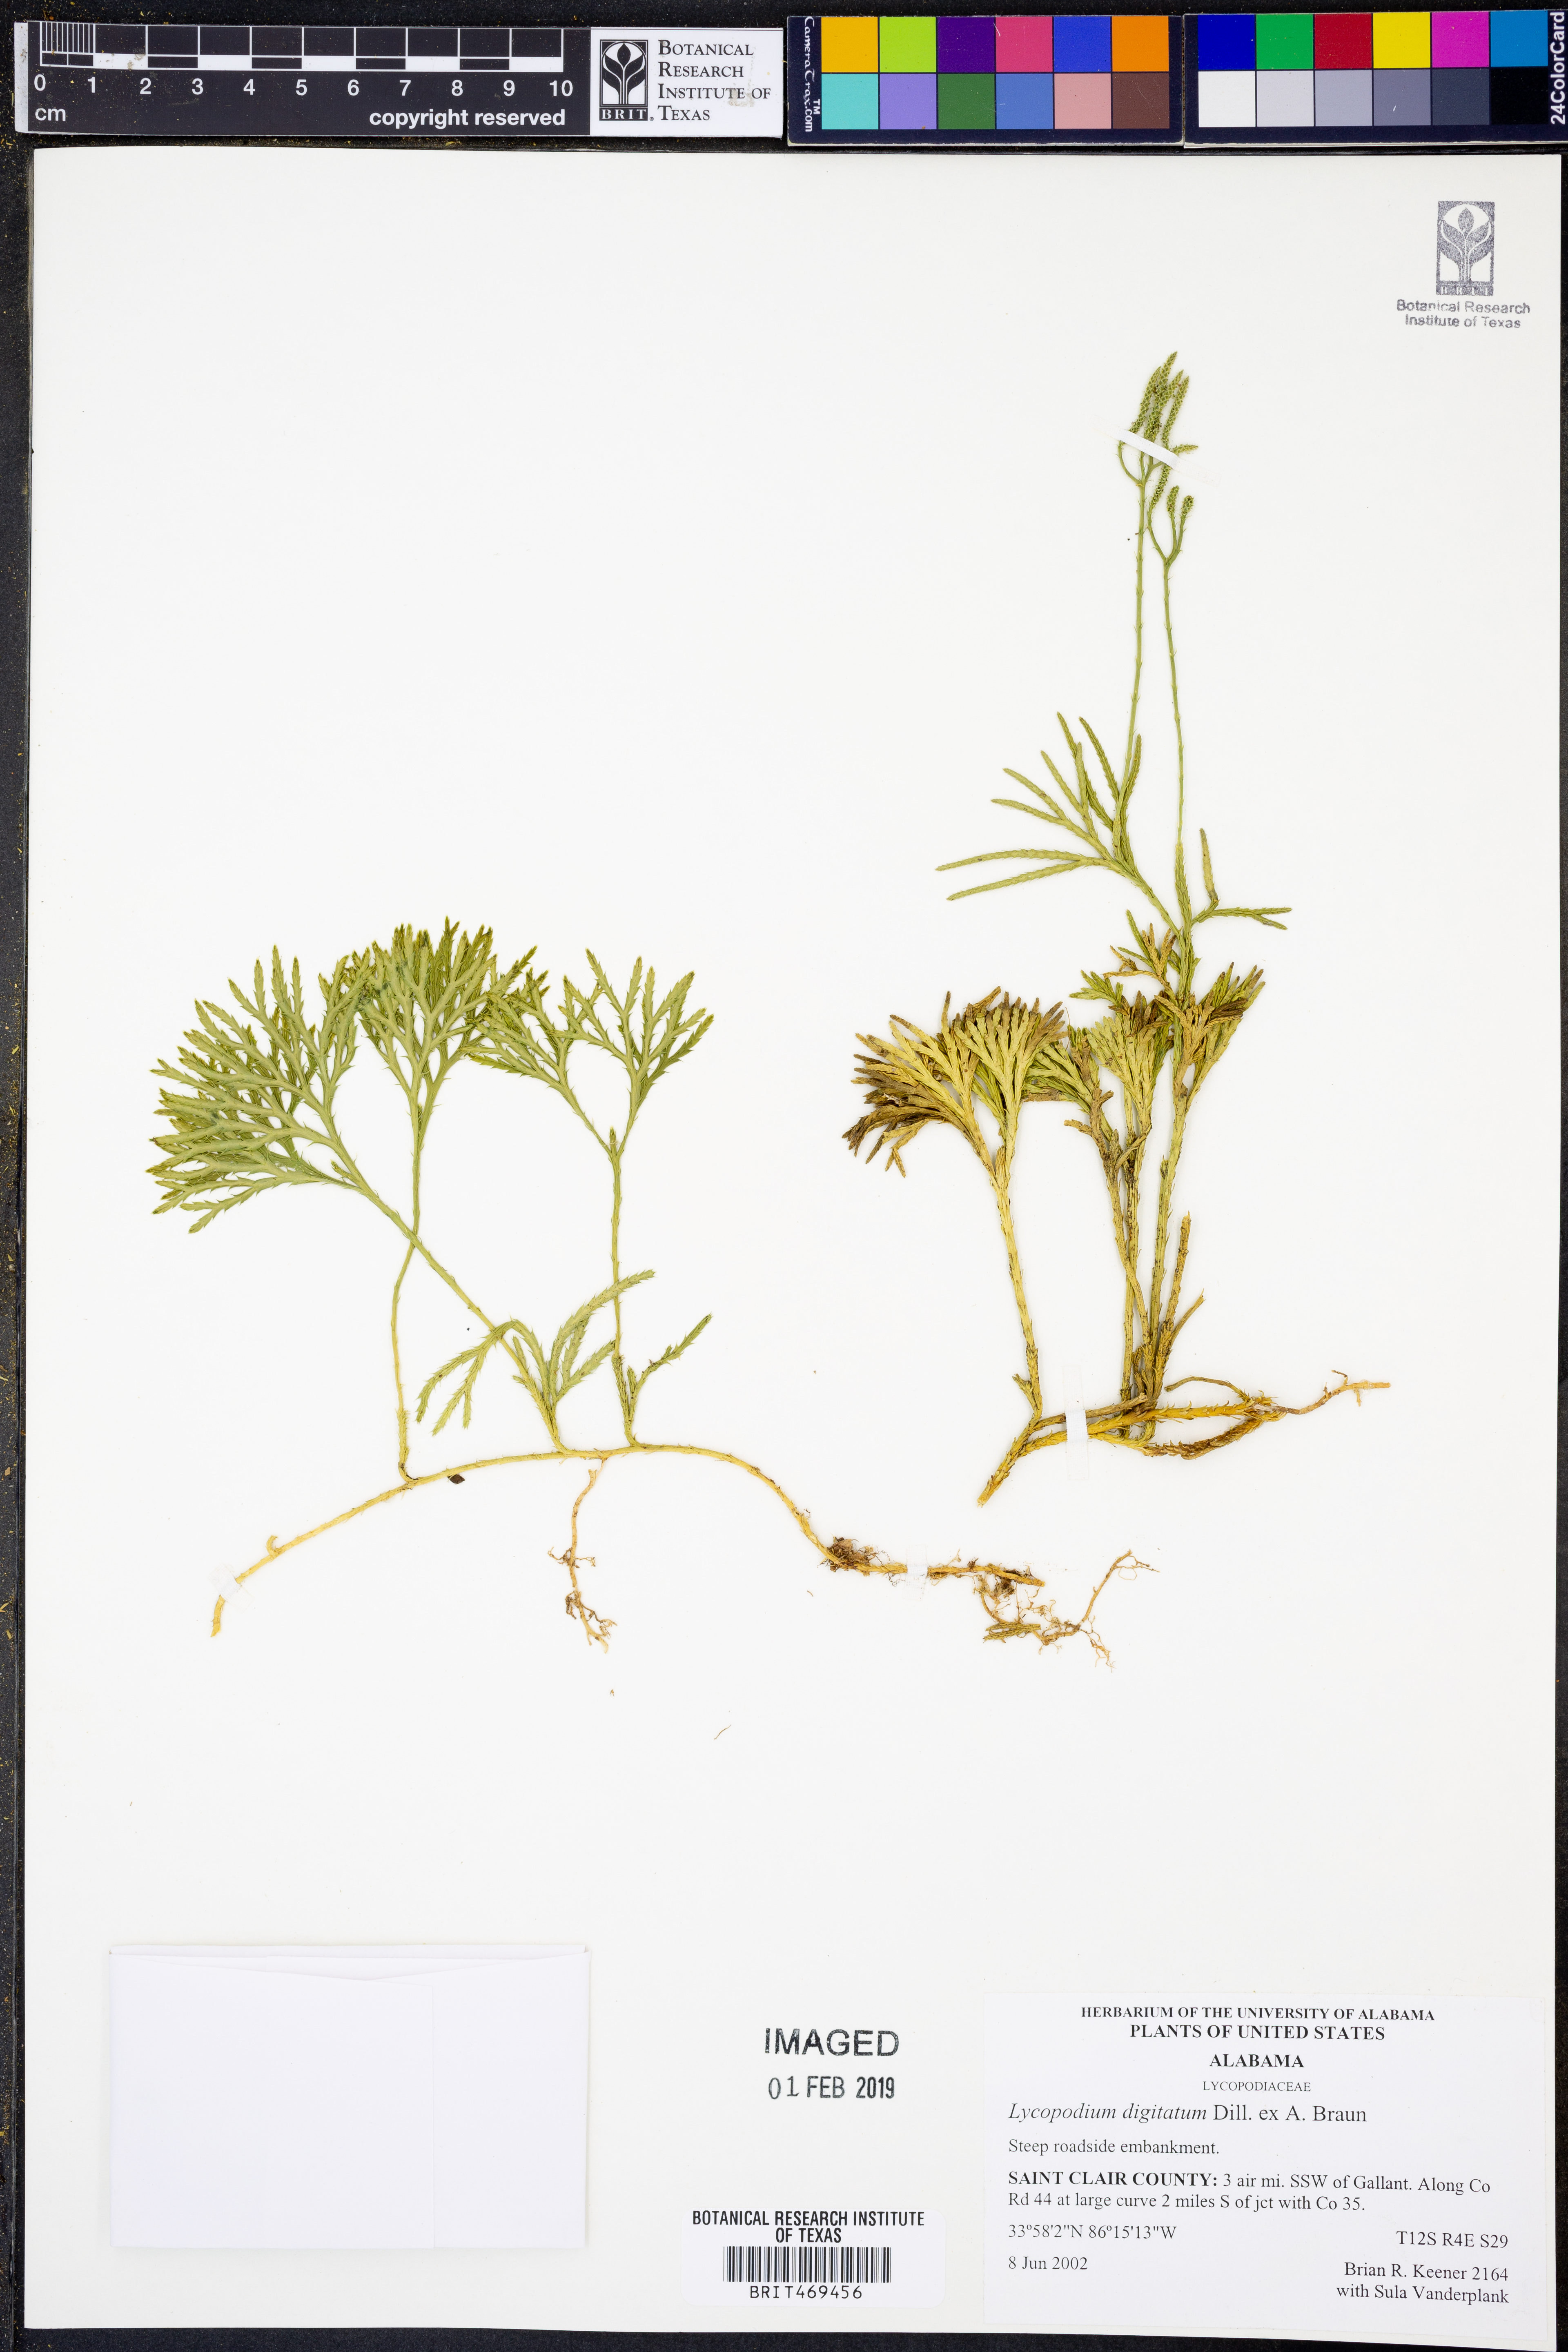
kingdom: Plantae
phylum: Tracheophyta
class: Lycopodiopsida
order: Lycopodiales
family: Lycopodiaceae
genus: Diphasiastrum
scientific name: Diphasiastrum digitatum
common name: Southern running-pine
